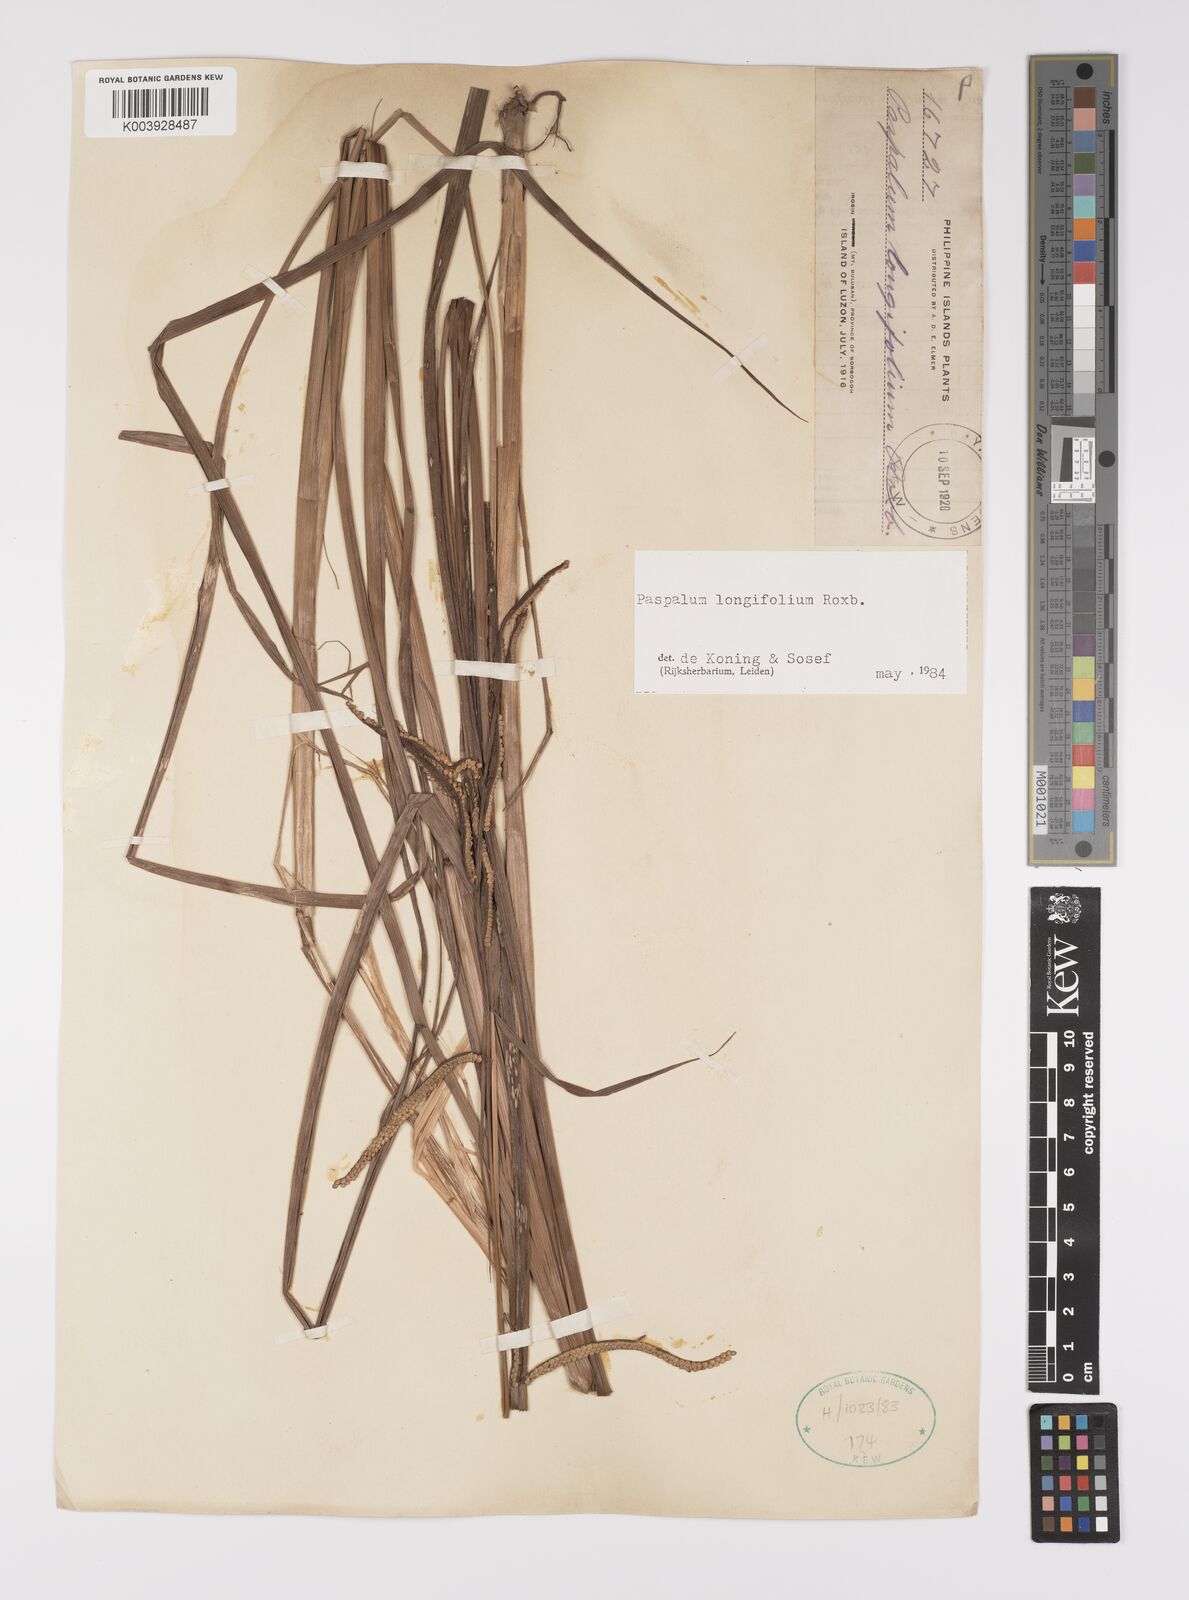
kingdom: Plantae
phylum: Tracheophyta
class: Liliopsida
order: Poales
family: Poaceae
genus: Paspalum
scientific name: Paspalum sumatrense
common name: Long-leaved paspalum
